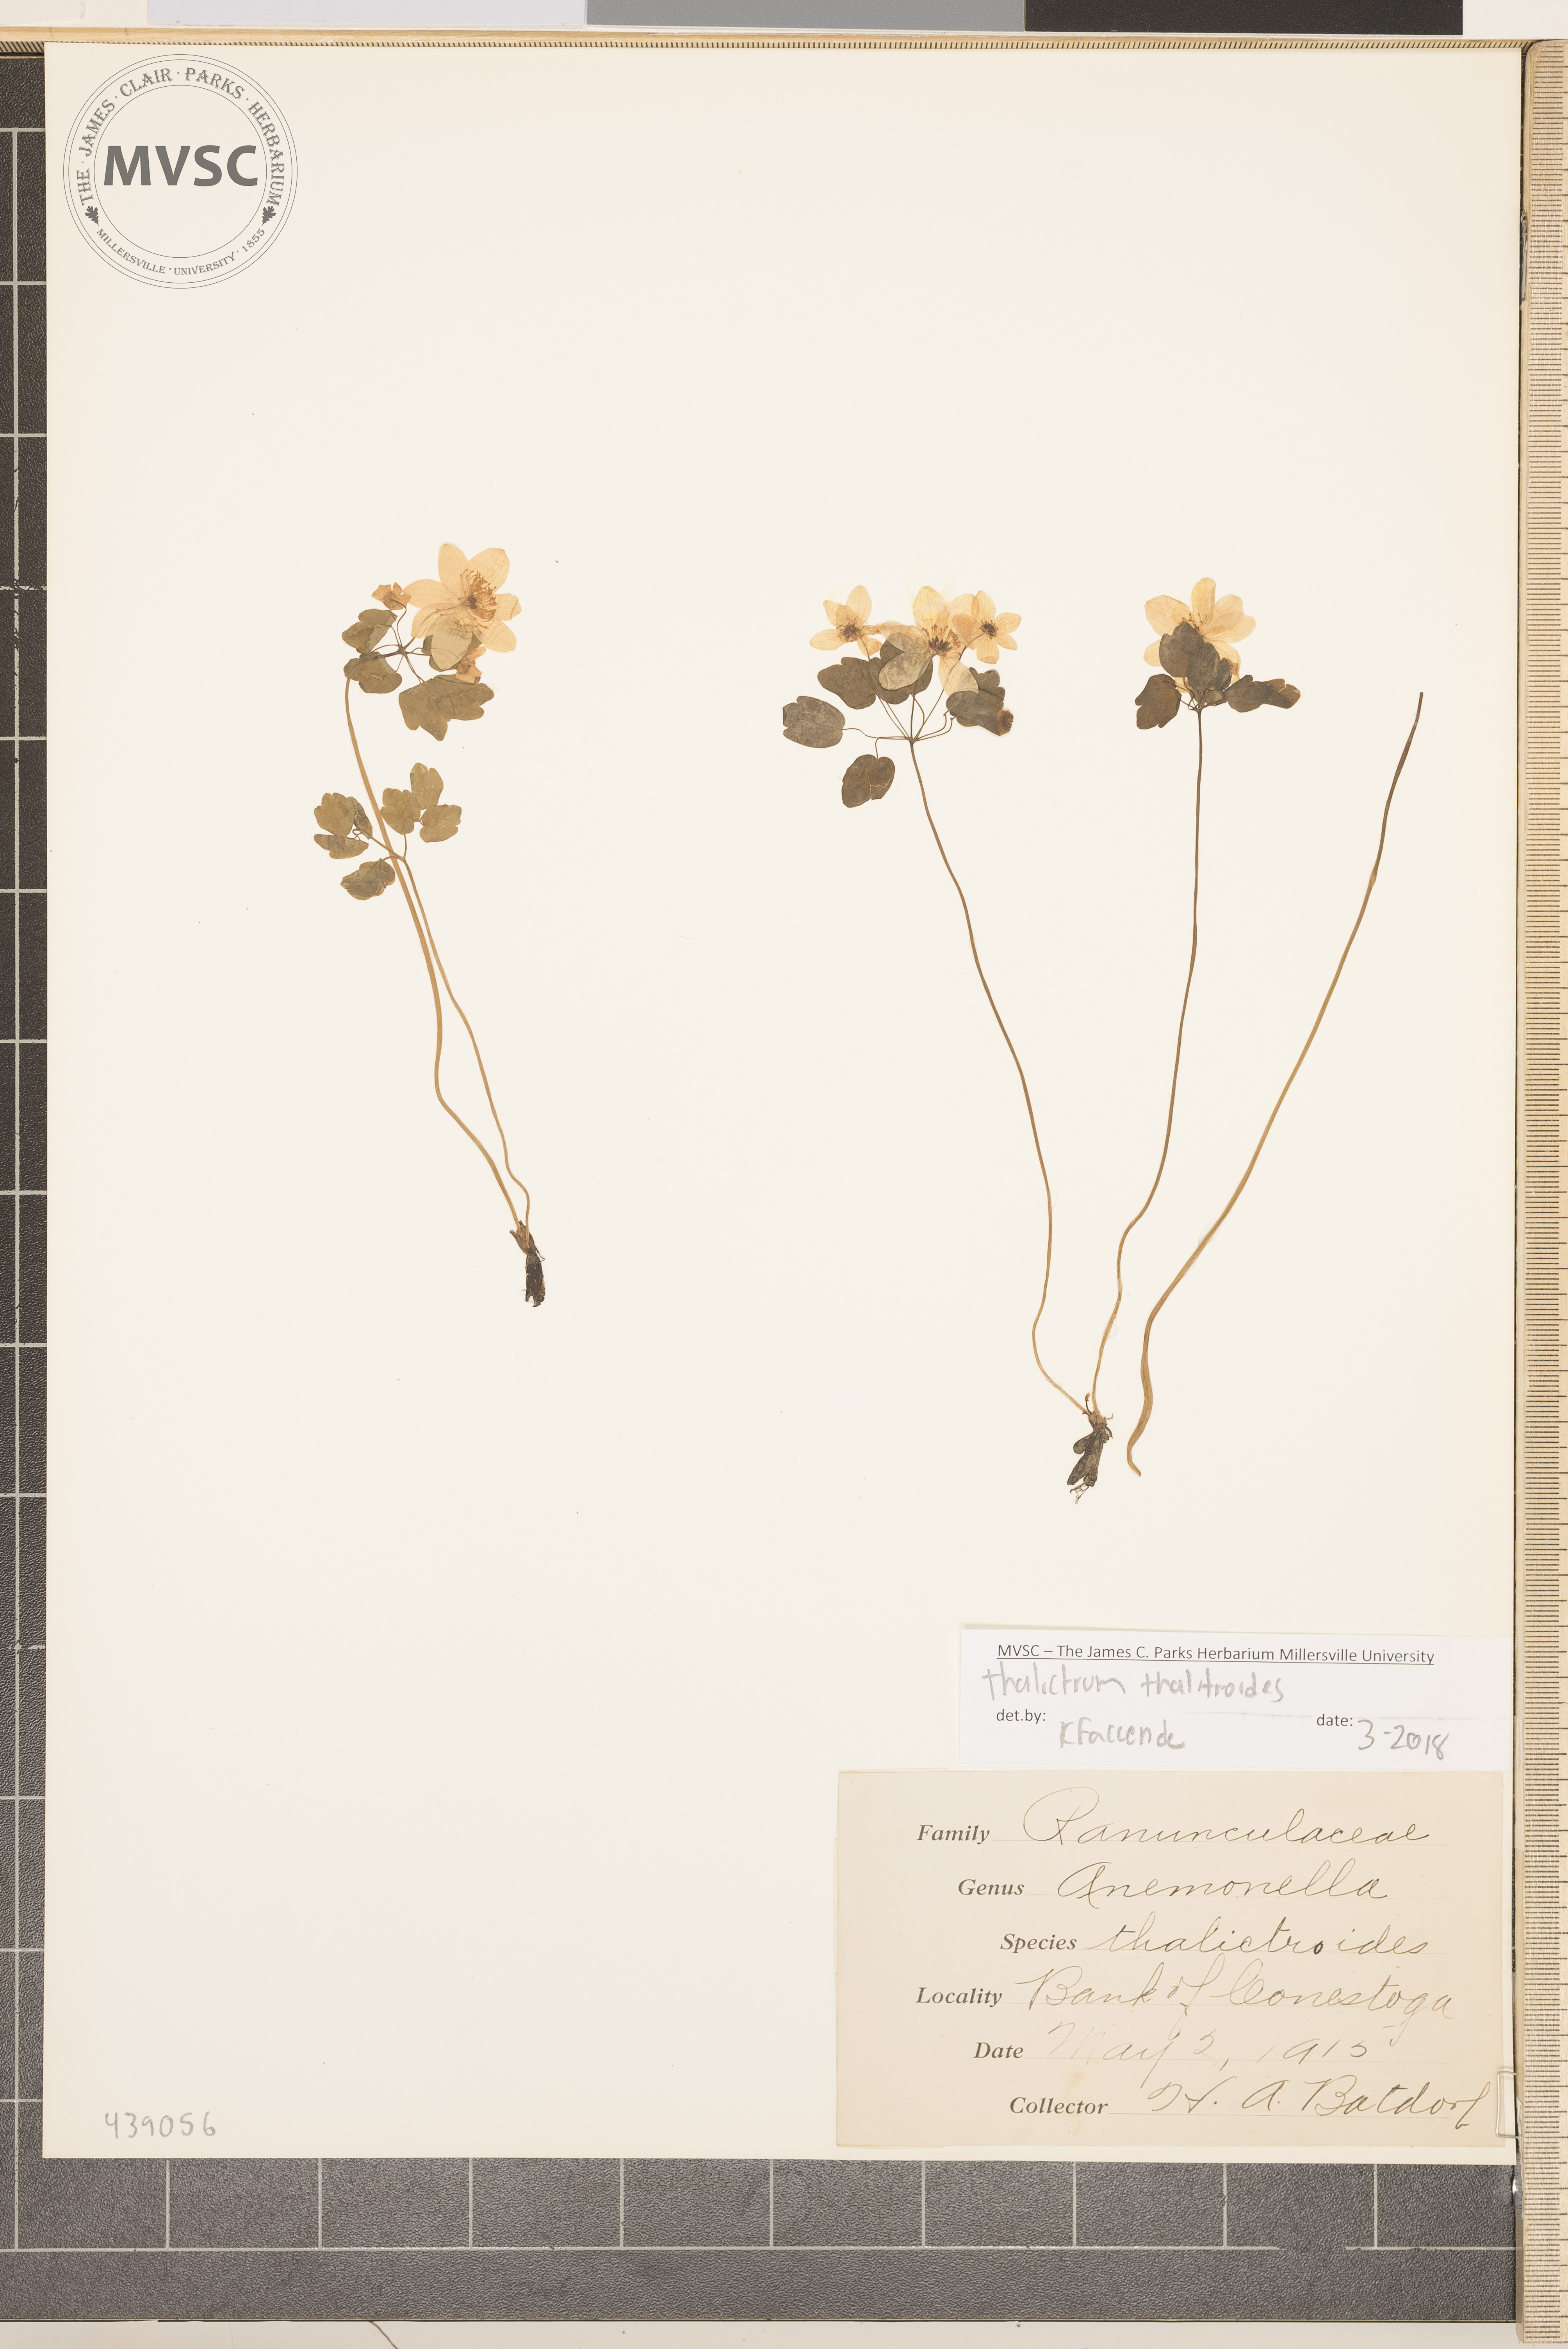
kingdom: Plantae
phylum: Tracheophyta
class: Magnoliopsida
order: Ranunculales
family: Ranunculaceae
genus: Thalictrum
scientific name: Thalictrum thalictroides
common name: Rue-anemone
